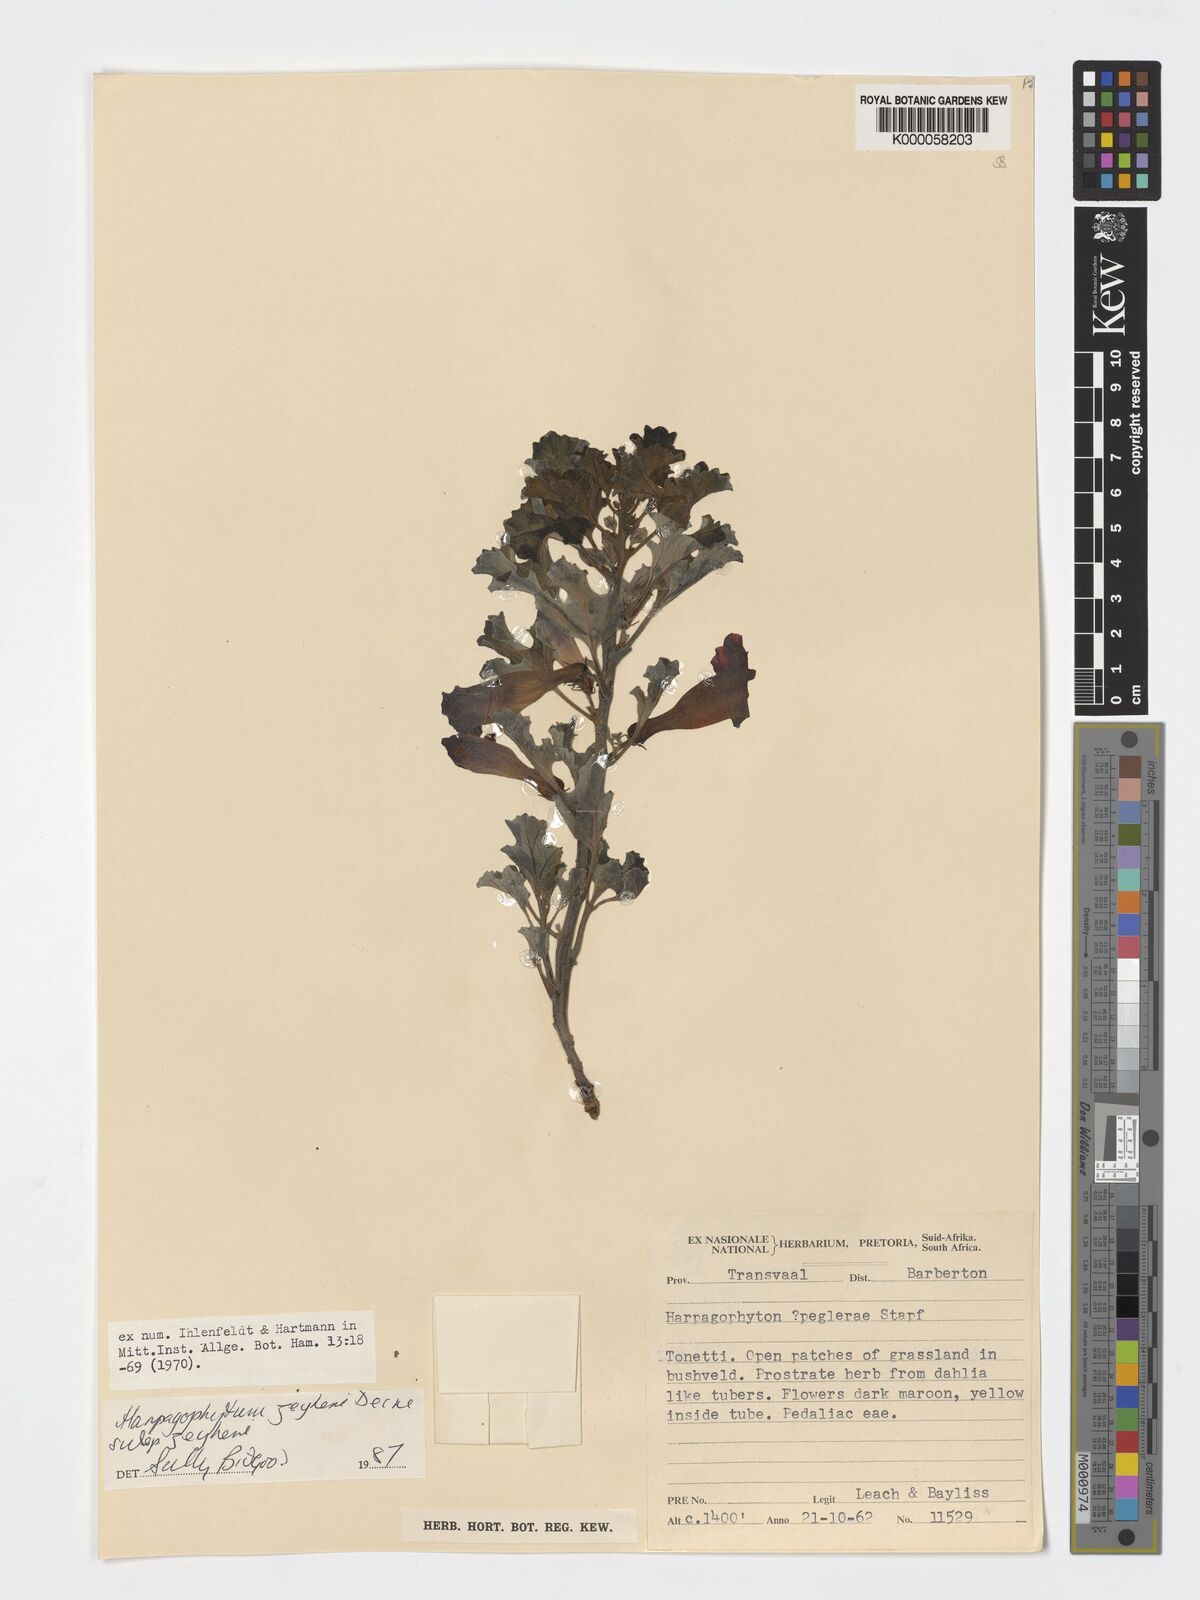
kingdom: Plantae
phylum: Tracheophyta
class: Magnoliopsida
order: Lamiales
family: Pedaliaceae
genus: Harpagophytum
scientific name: Harpagophytum zeyheri
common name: Grappleplant
